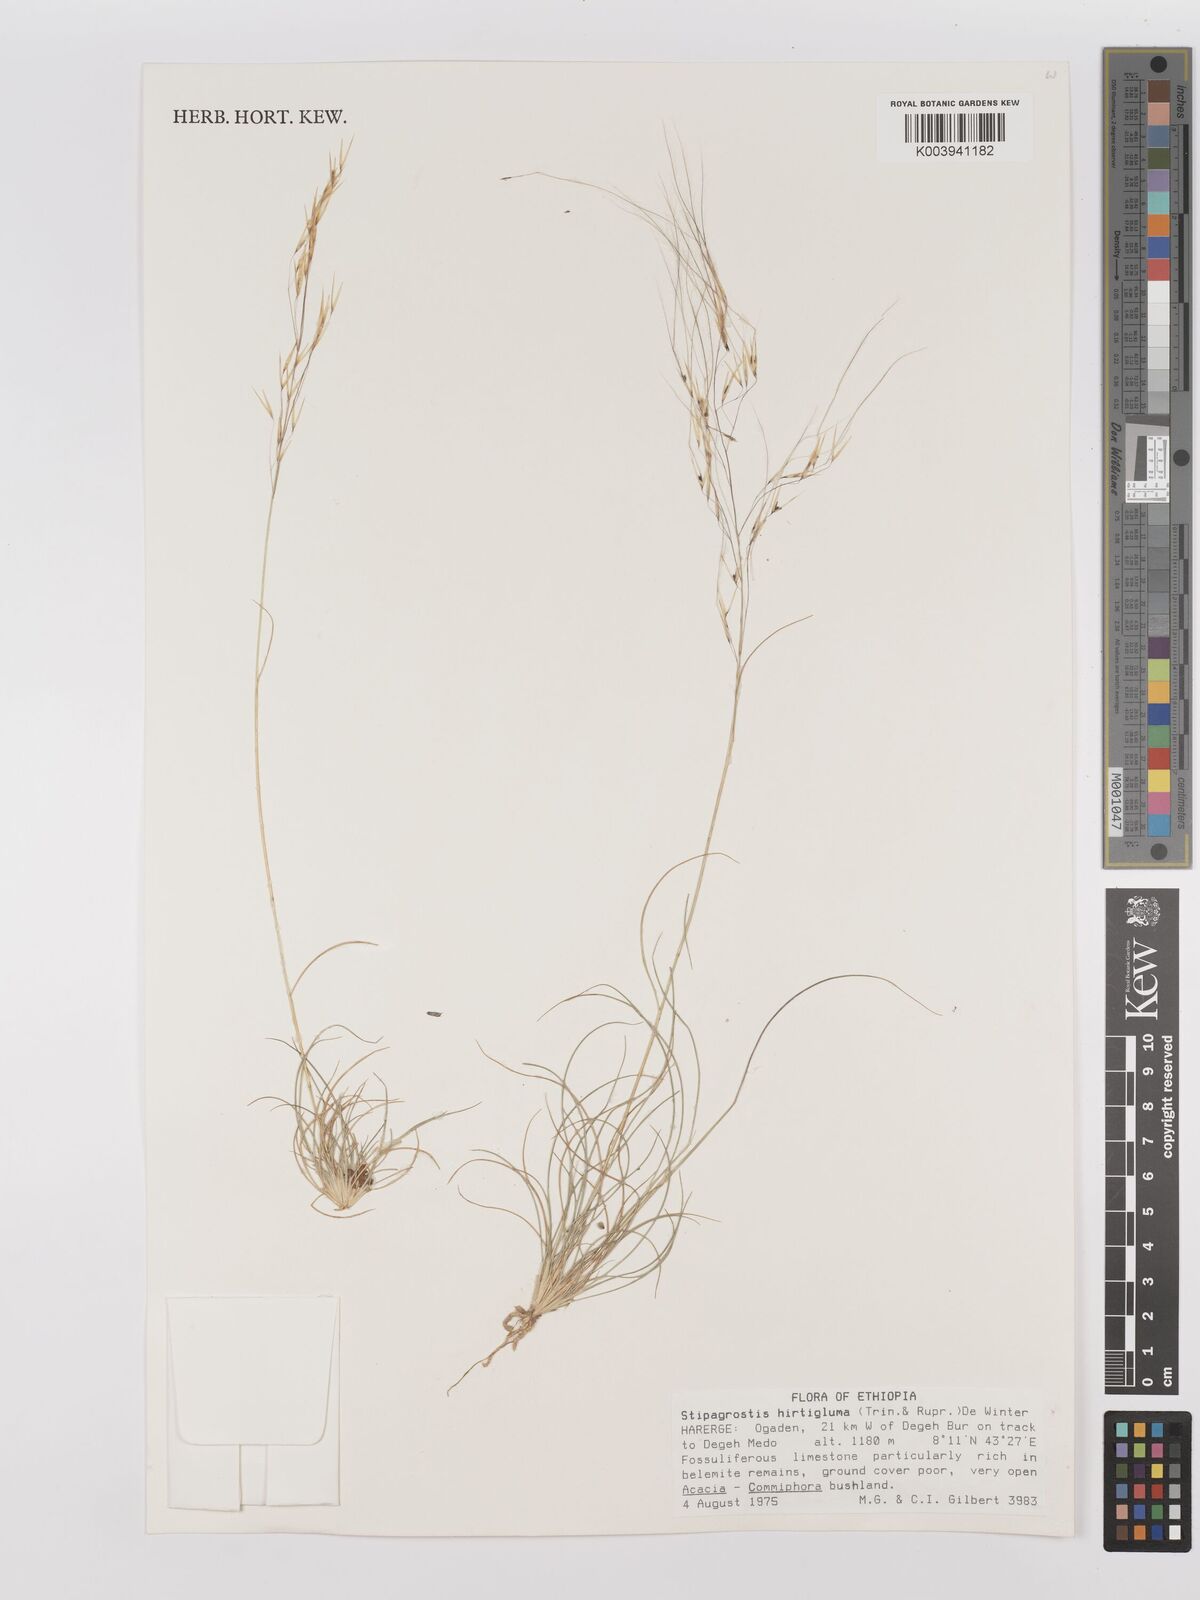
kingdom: Plantae
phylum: Tracheophyta
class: Liliopsida
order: Poales
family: Poaceae
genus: Stipagrostis
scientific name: Stipagrostis hirtigluma
